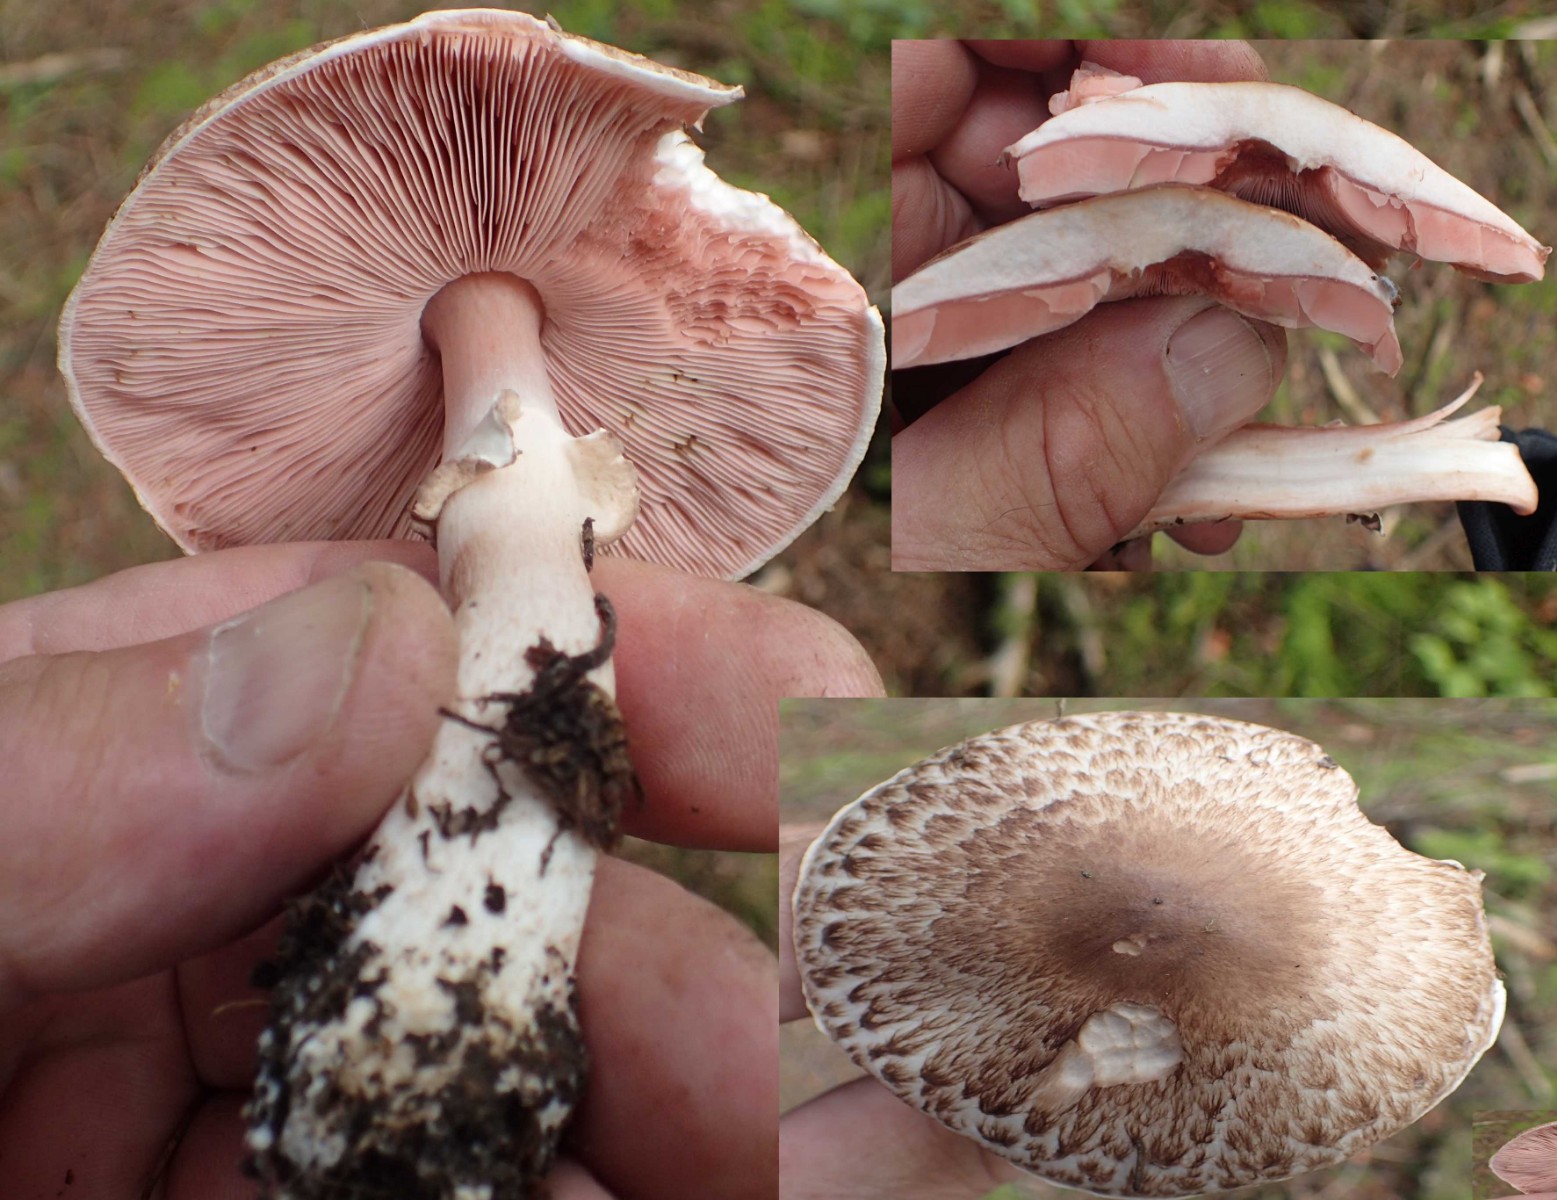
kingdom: Fungi
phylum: Basidiomycota
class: Agaricomycetes
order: Agaricales
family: Agaricaceae
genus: Agaricus
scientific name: Agaricus impudicus
